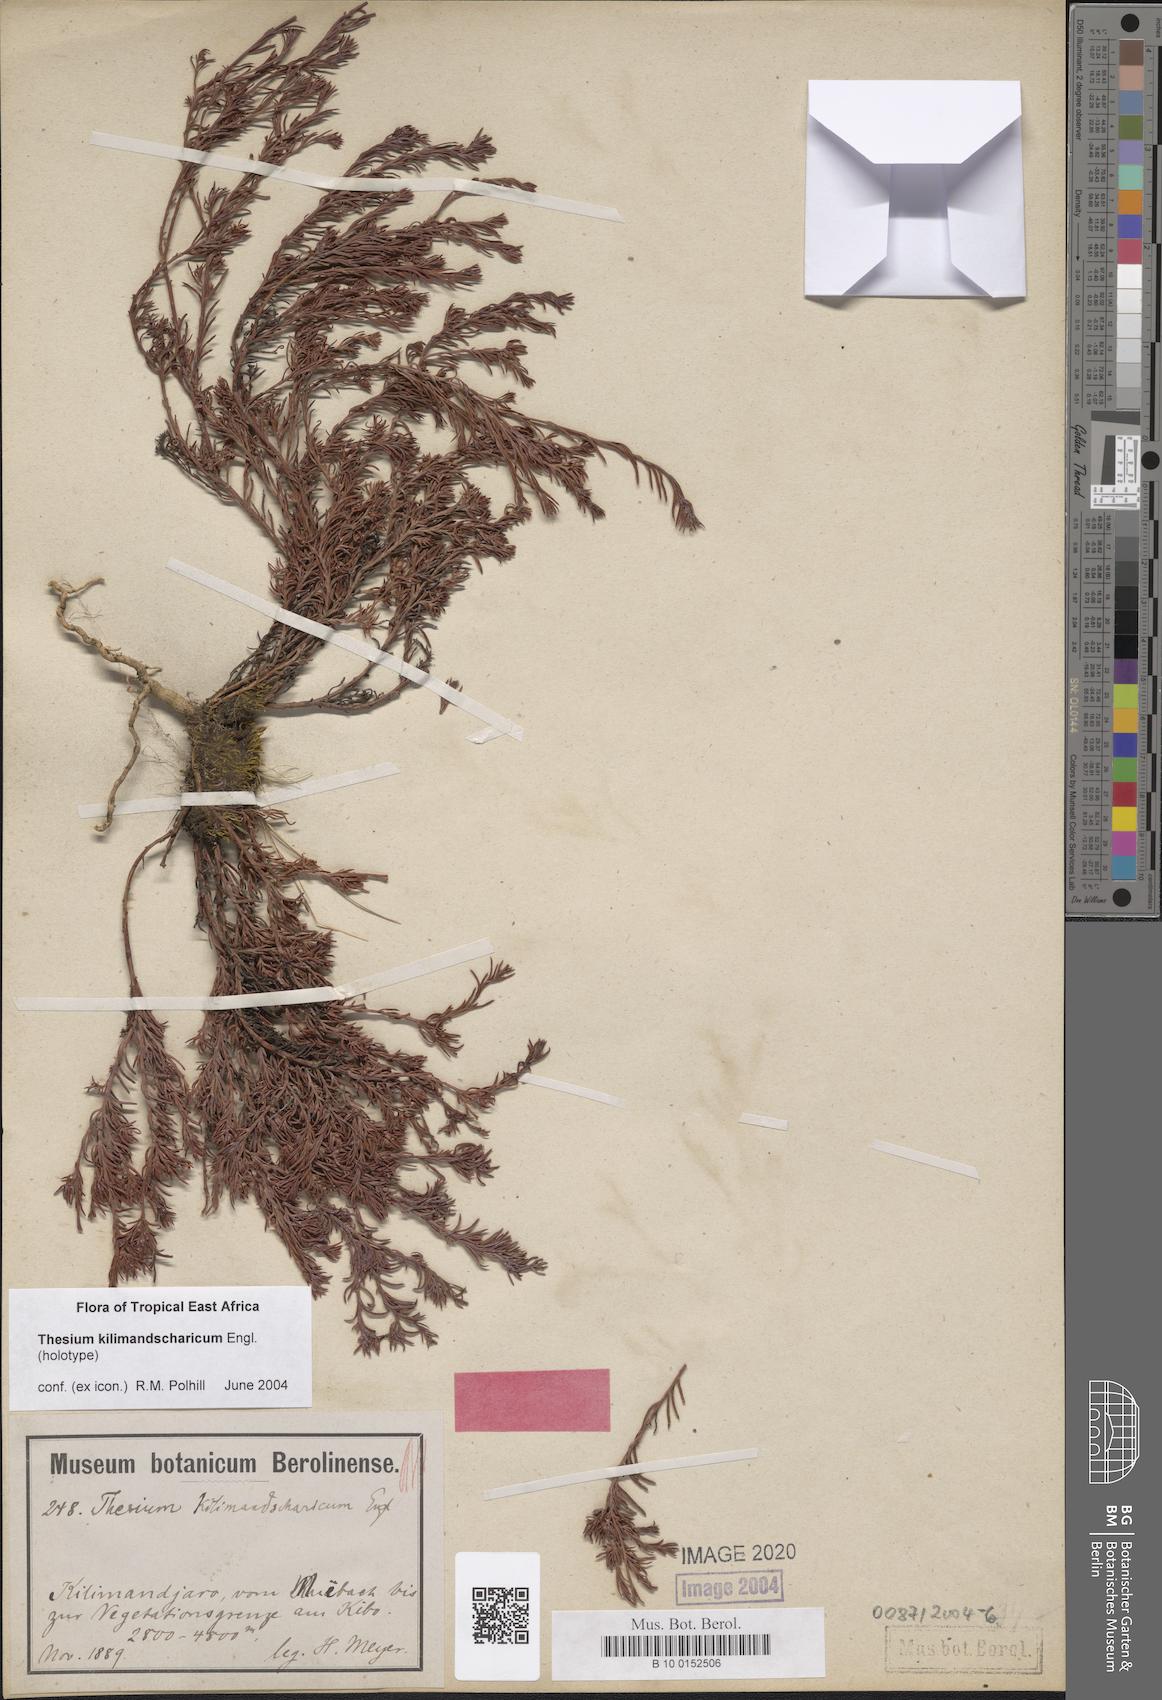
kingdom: Plantae
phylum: Tracheophyta
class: Magnoliopsida
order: Santalales
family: Thesiaceae
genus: Thesium
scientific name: Thesium kilimandscharicum
